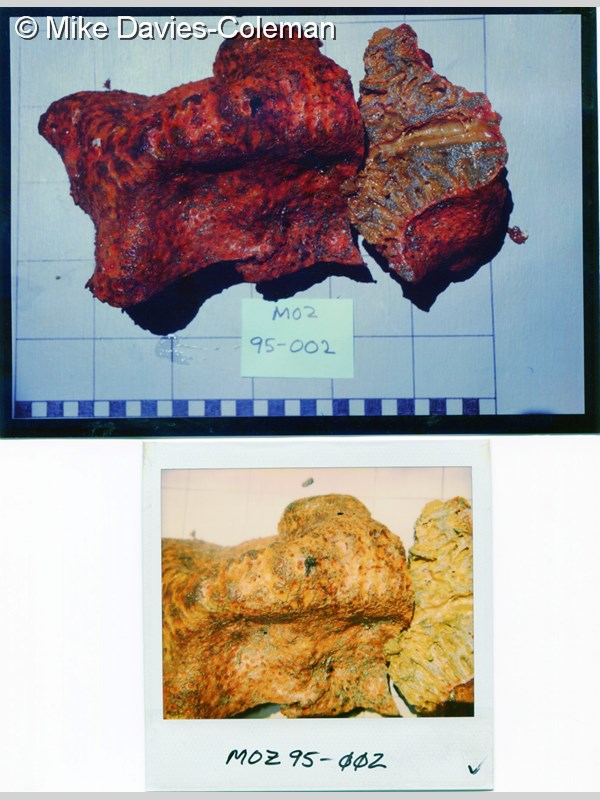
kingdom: Animalia
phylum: Porifera
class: Demospongiae
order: Clionaida
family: Clionaidae
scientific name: Clionaidae
